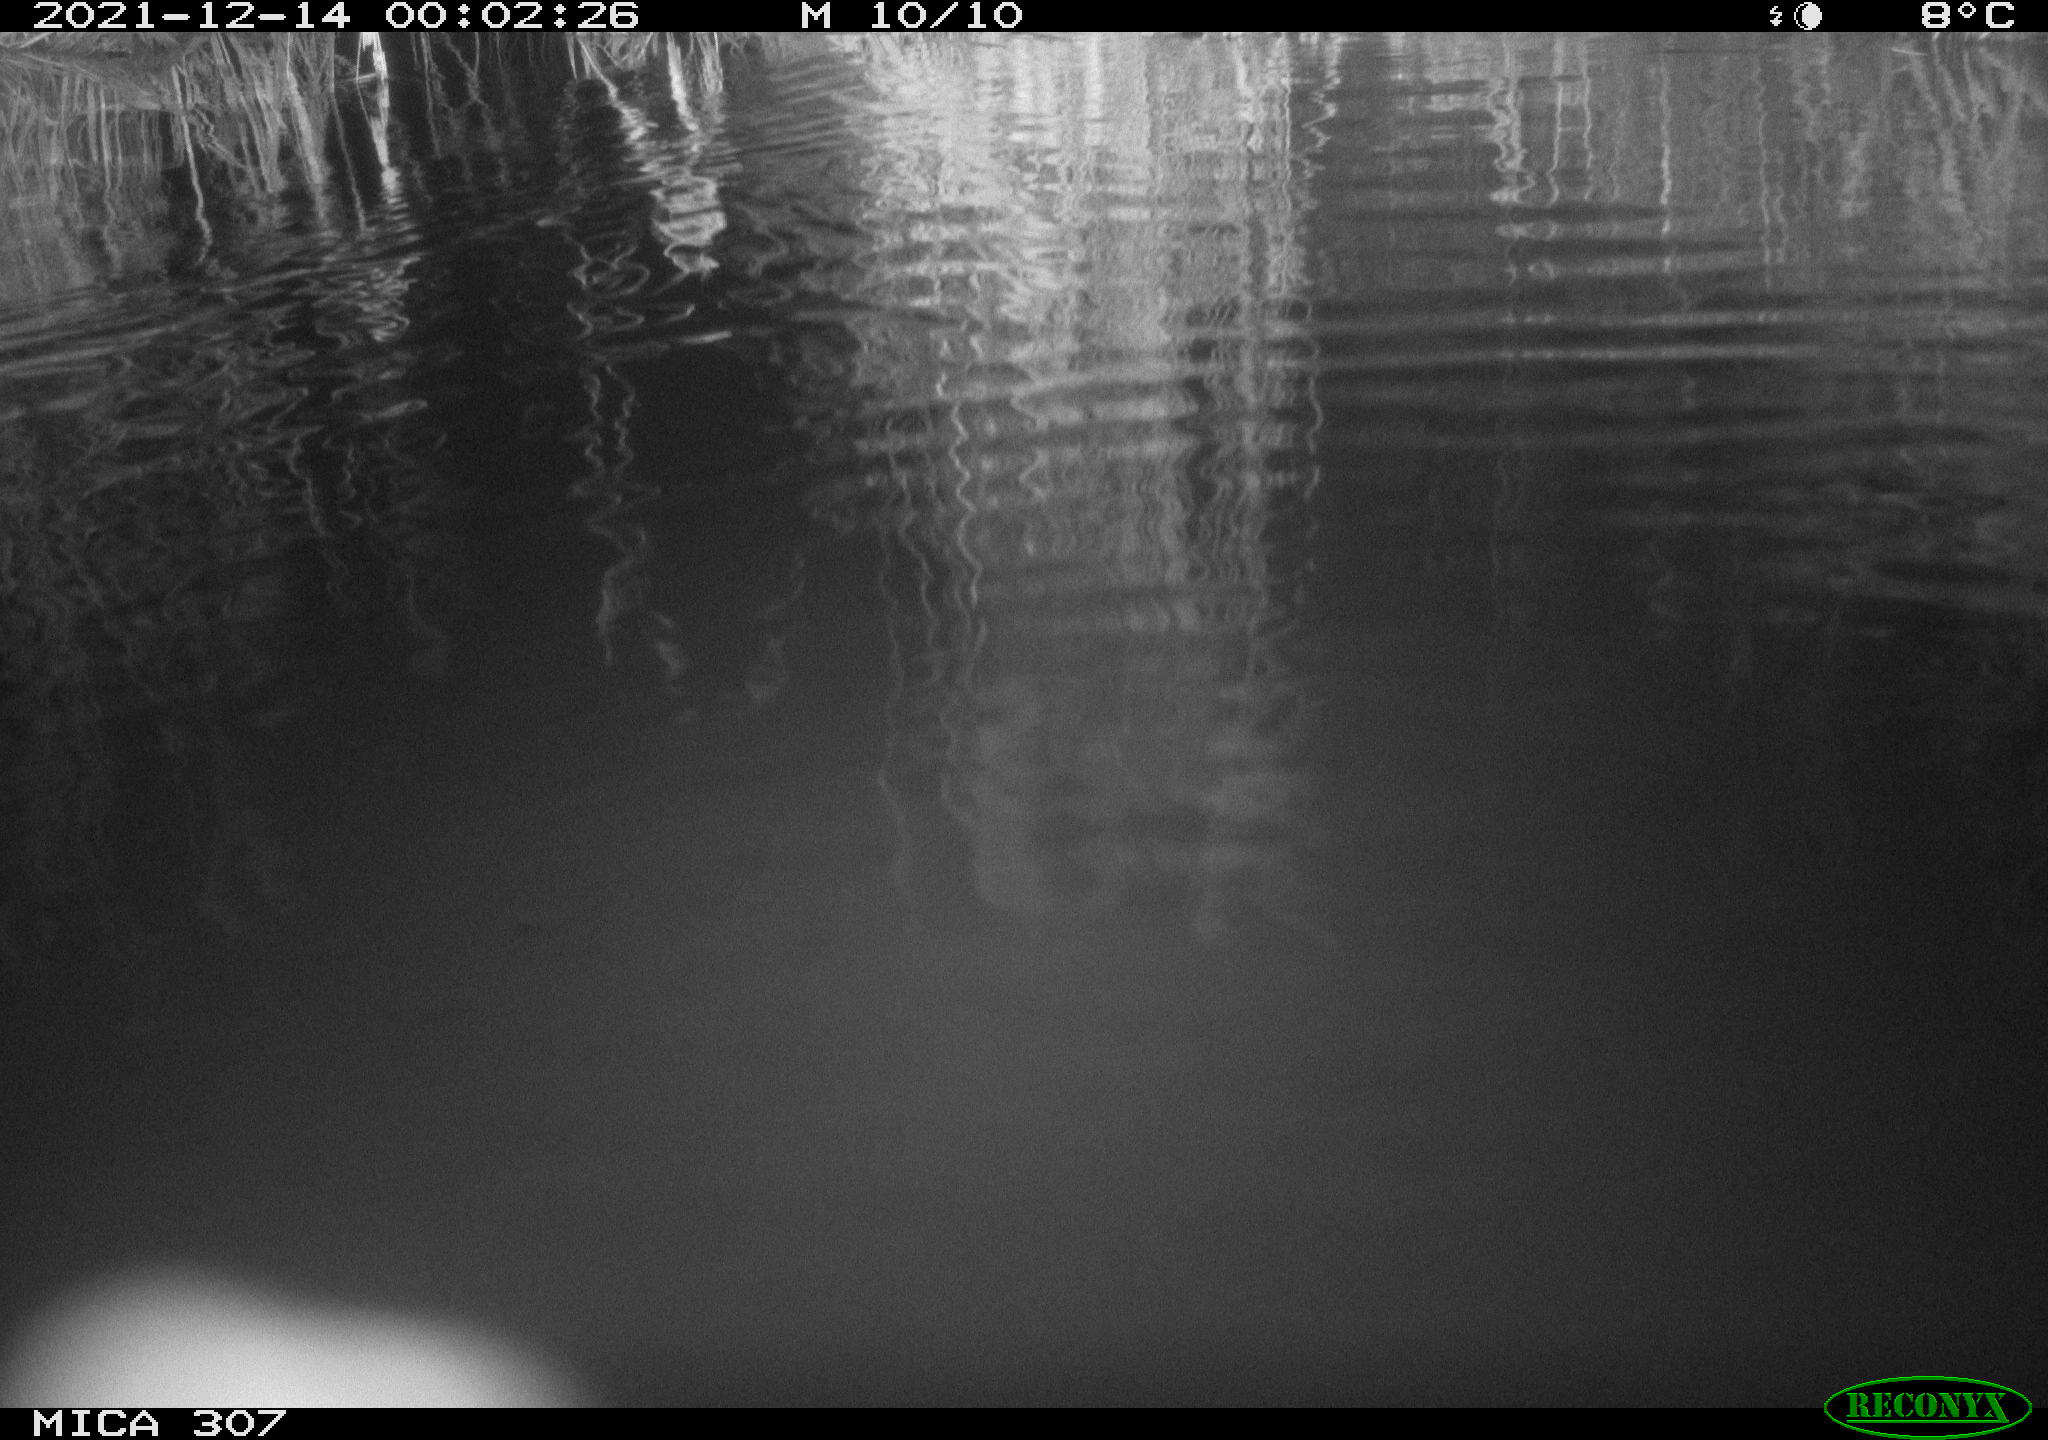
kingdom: Animalia
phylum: Chordata
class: Mammalia
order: Rodentia
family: Muridae
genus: Rattus
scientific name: Rattus norvegicus
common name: Brown rat
